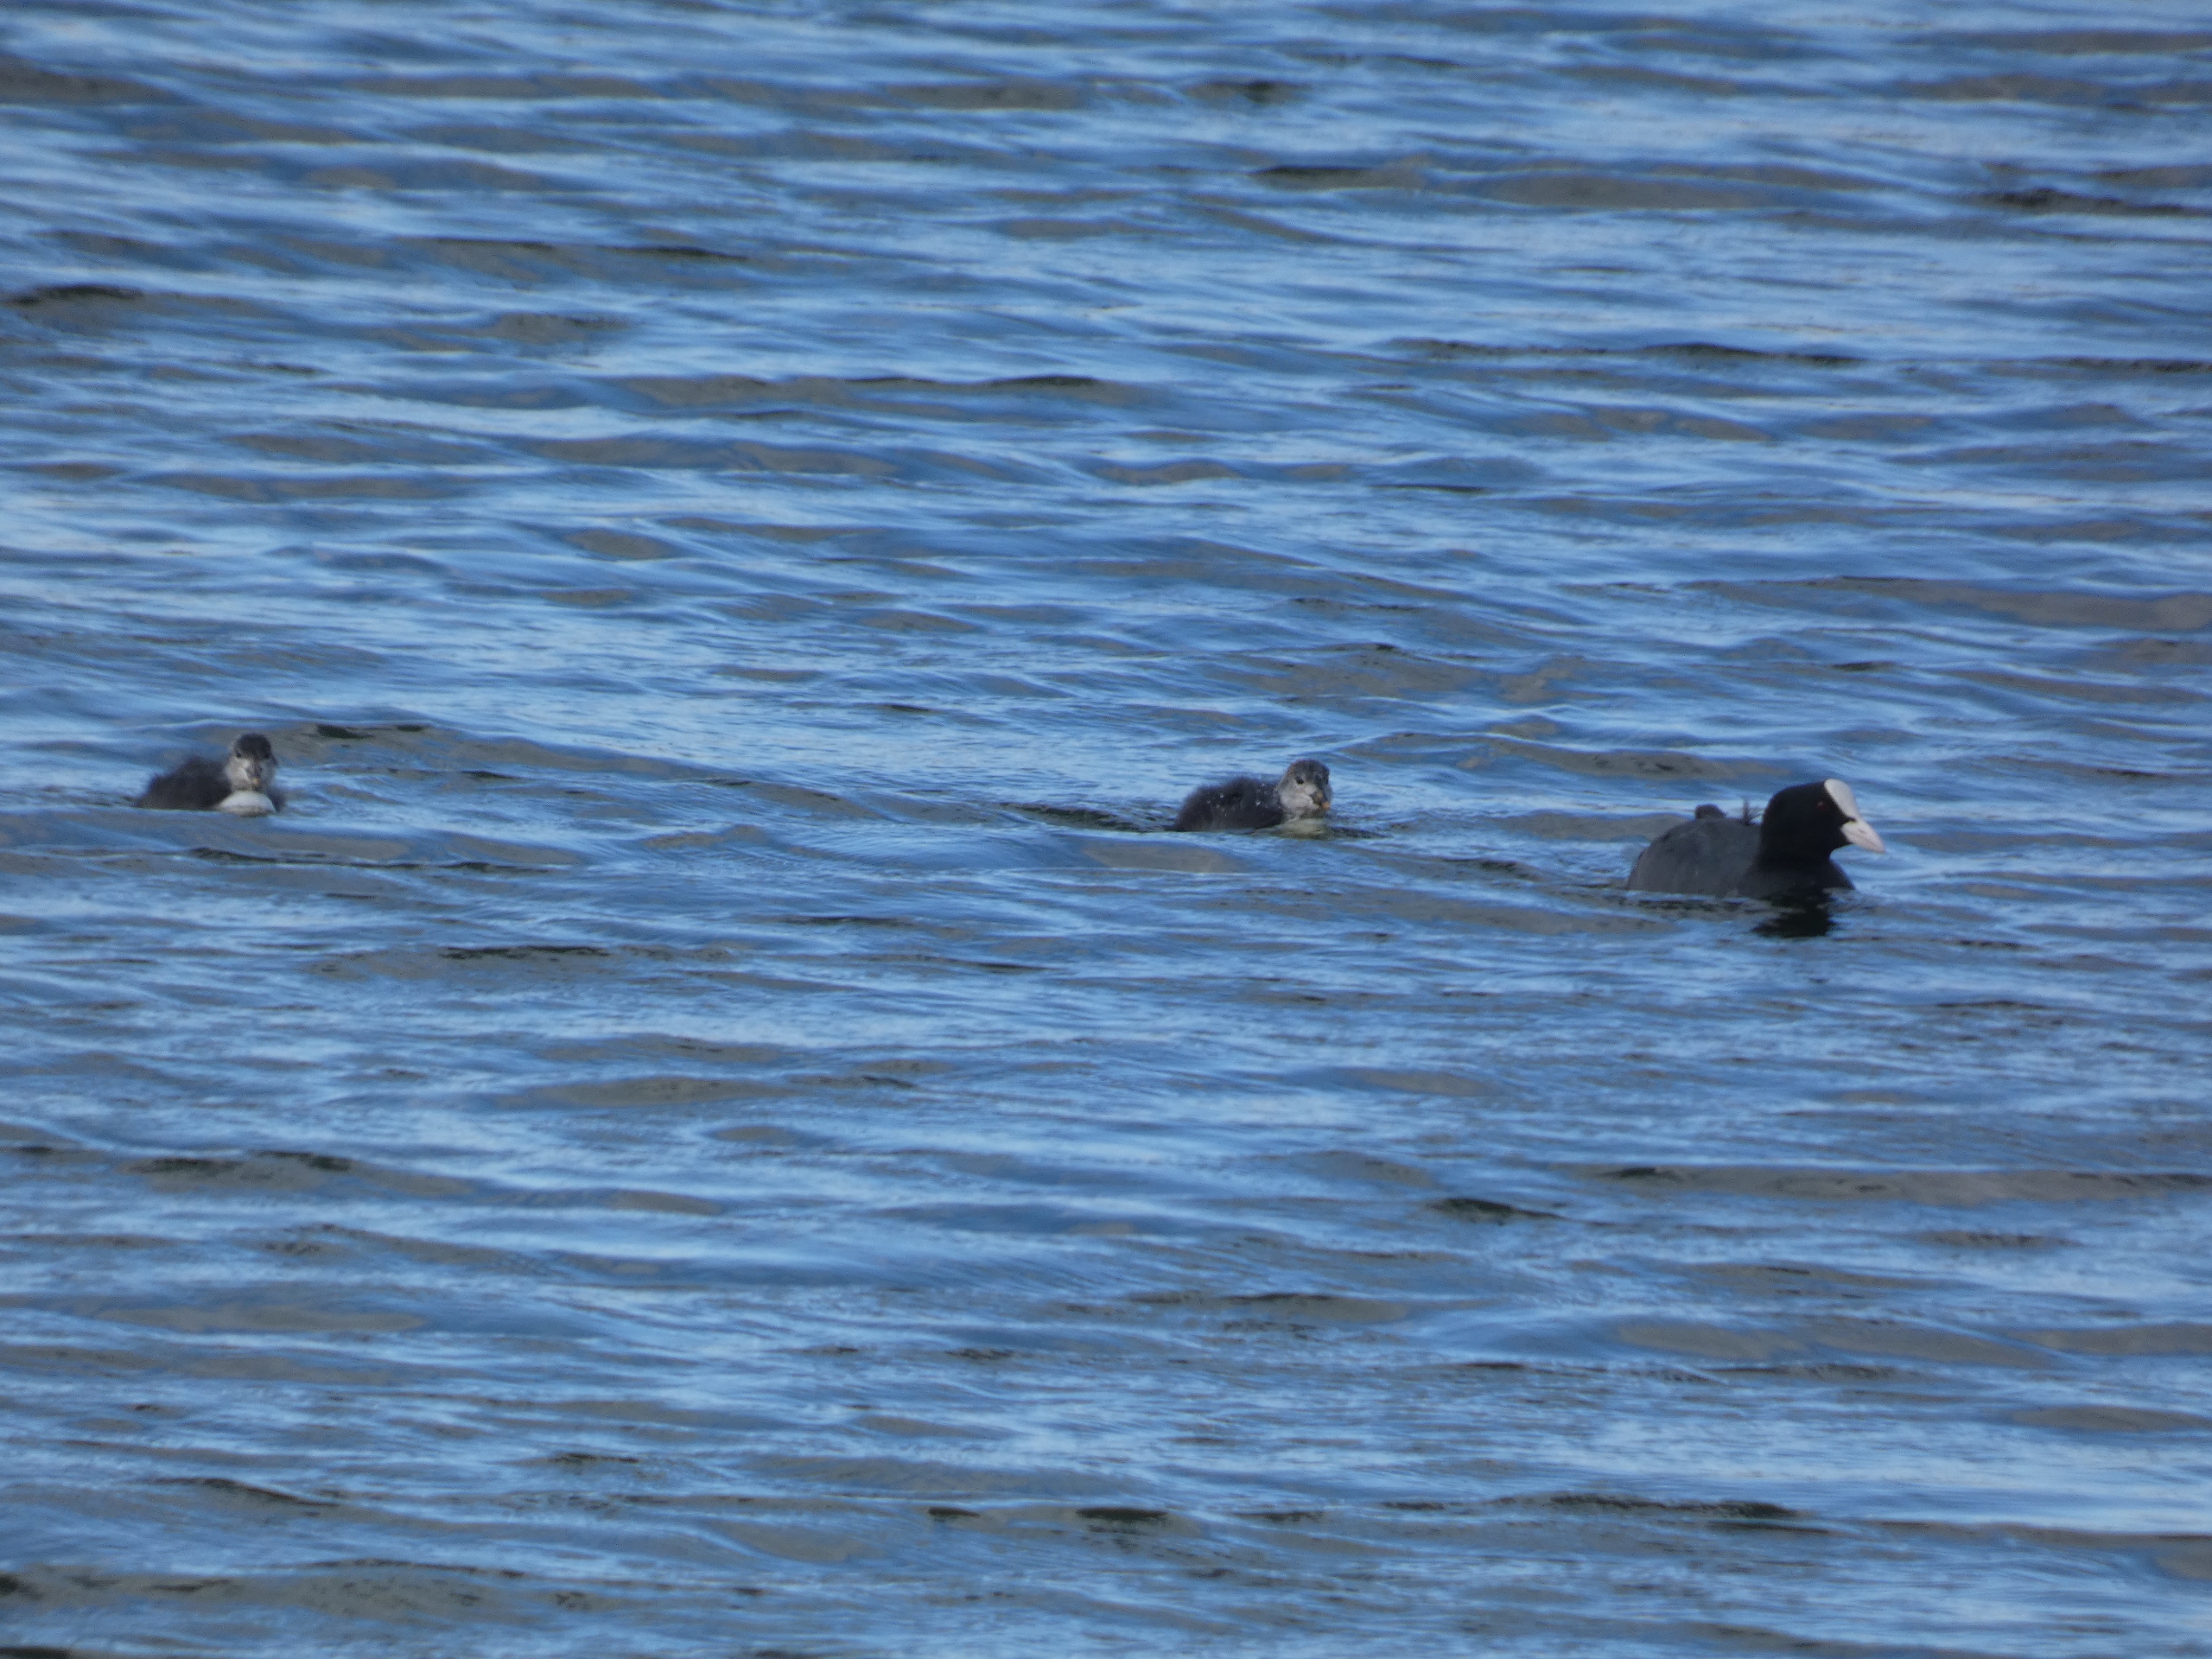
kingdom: Animalia
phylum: Chordata
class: Aves
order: Gruiformes
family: Rallidae
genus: Fulica
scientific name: Fulica atra
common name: Blishøne
